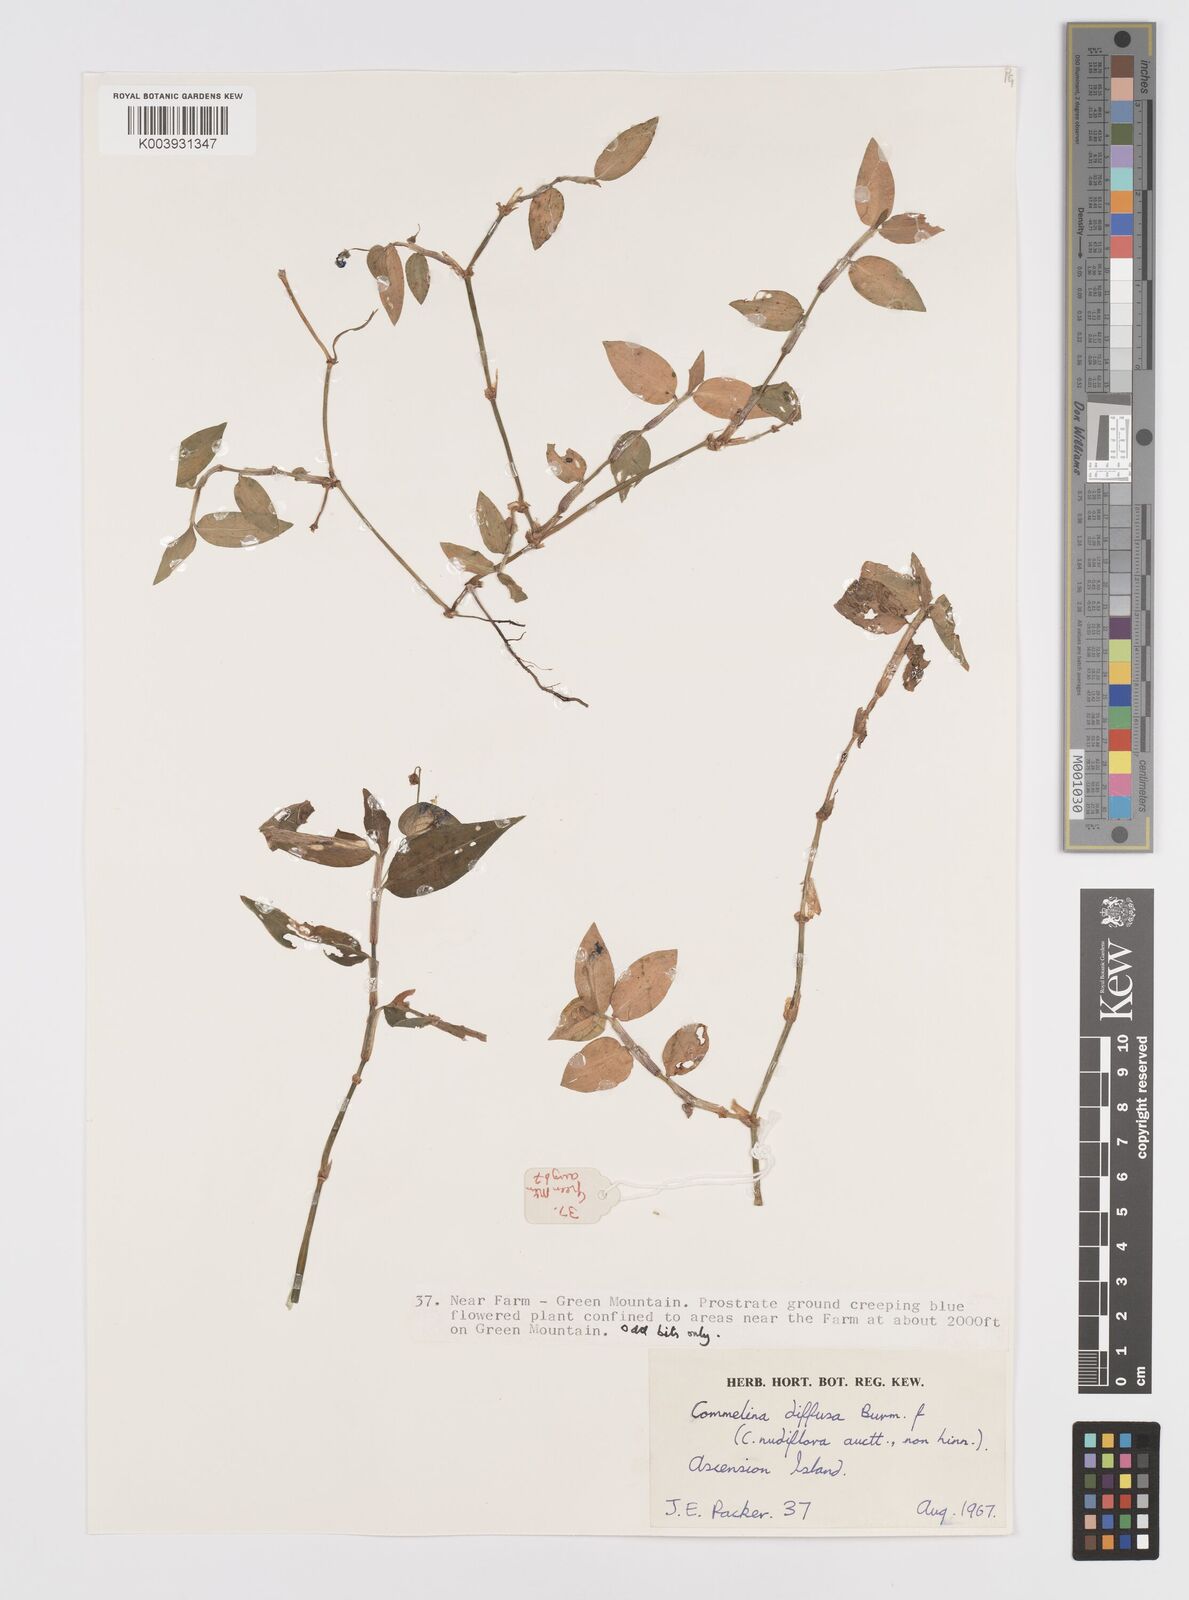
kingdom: Plantae
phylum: Tracheophyta
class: Liliopsida
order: Commelinales
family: Commelinaceae
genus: Murdannia
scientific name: Murdannia nudiflora
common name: Nakedstem dewflower
